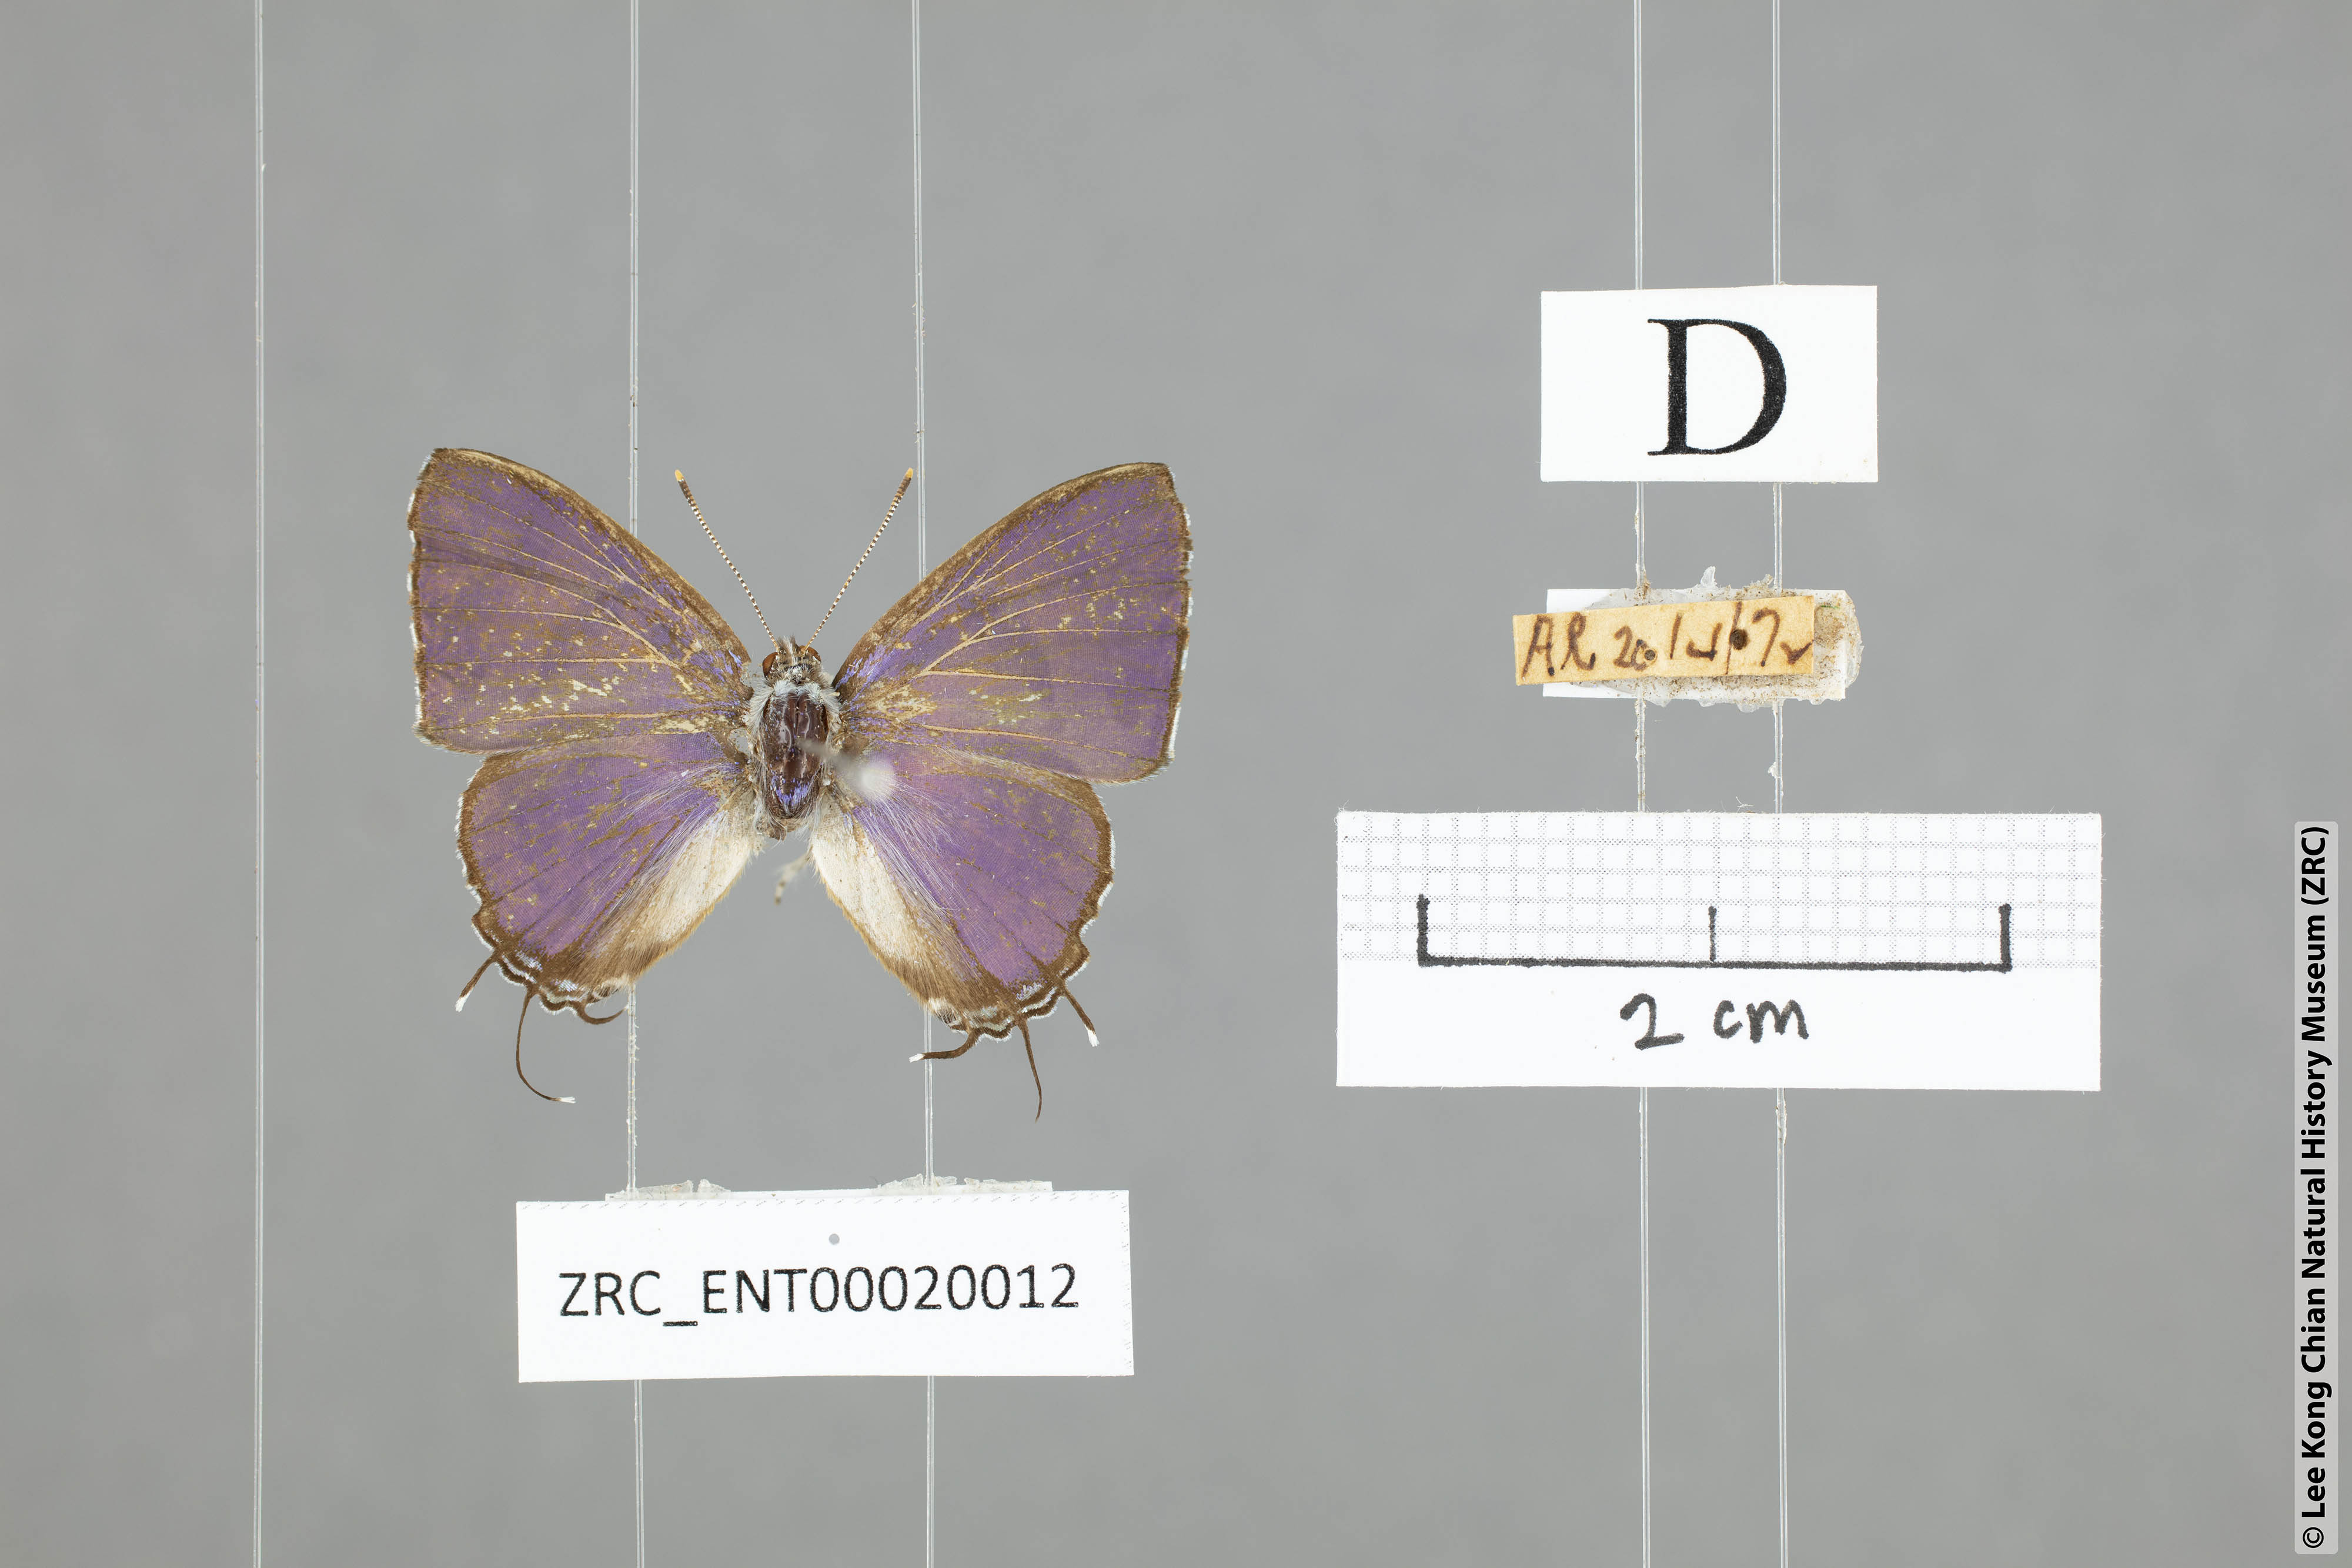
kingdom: Animalia
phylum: Arthropoda
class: Insecta
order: Lepidoptera
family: Lycaenidae
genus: Catapaecilma
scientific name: Catapaecilma subochrea
